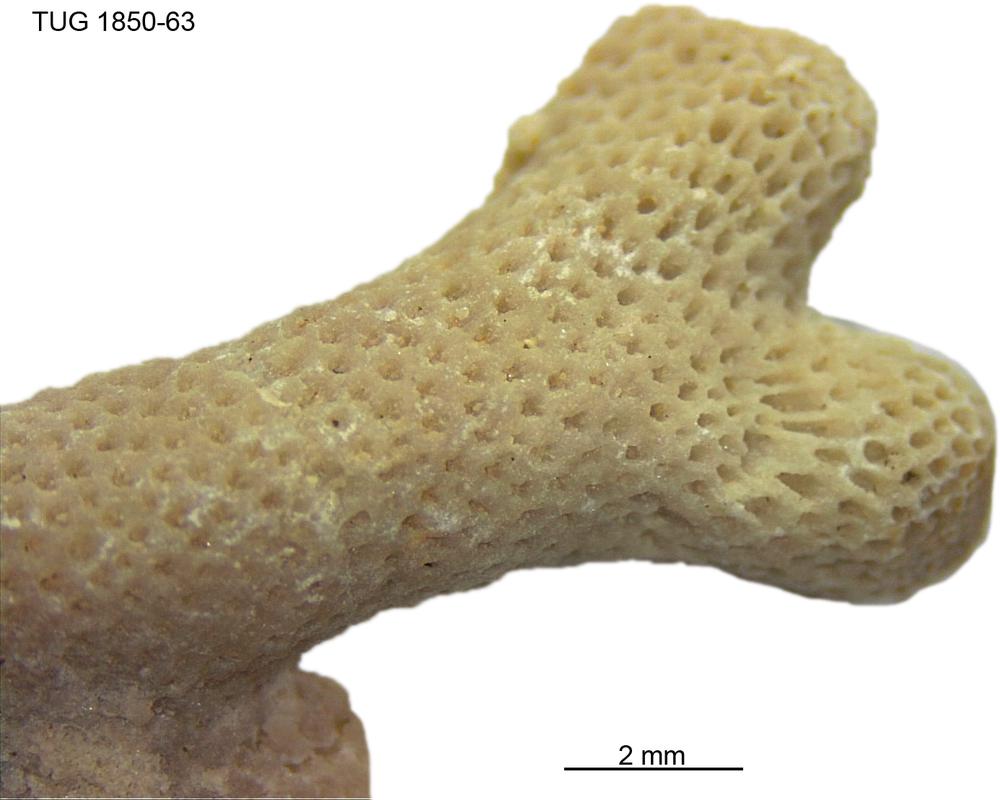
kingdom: Animalia
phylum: Cnidaria
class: Anthozoa
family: Coenitidae
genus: Coenites
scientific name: Coenites juniperinus
